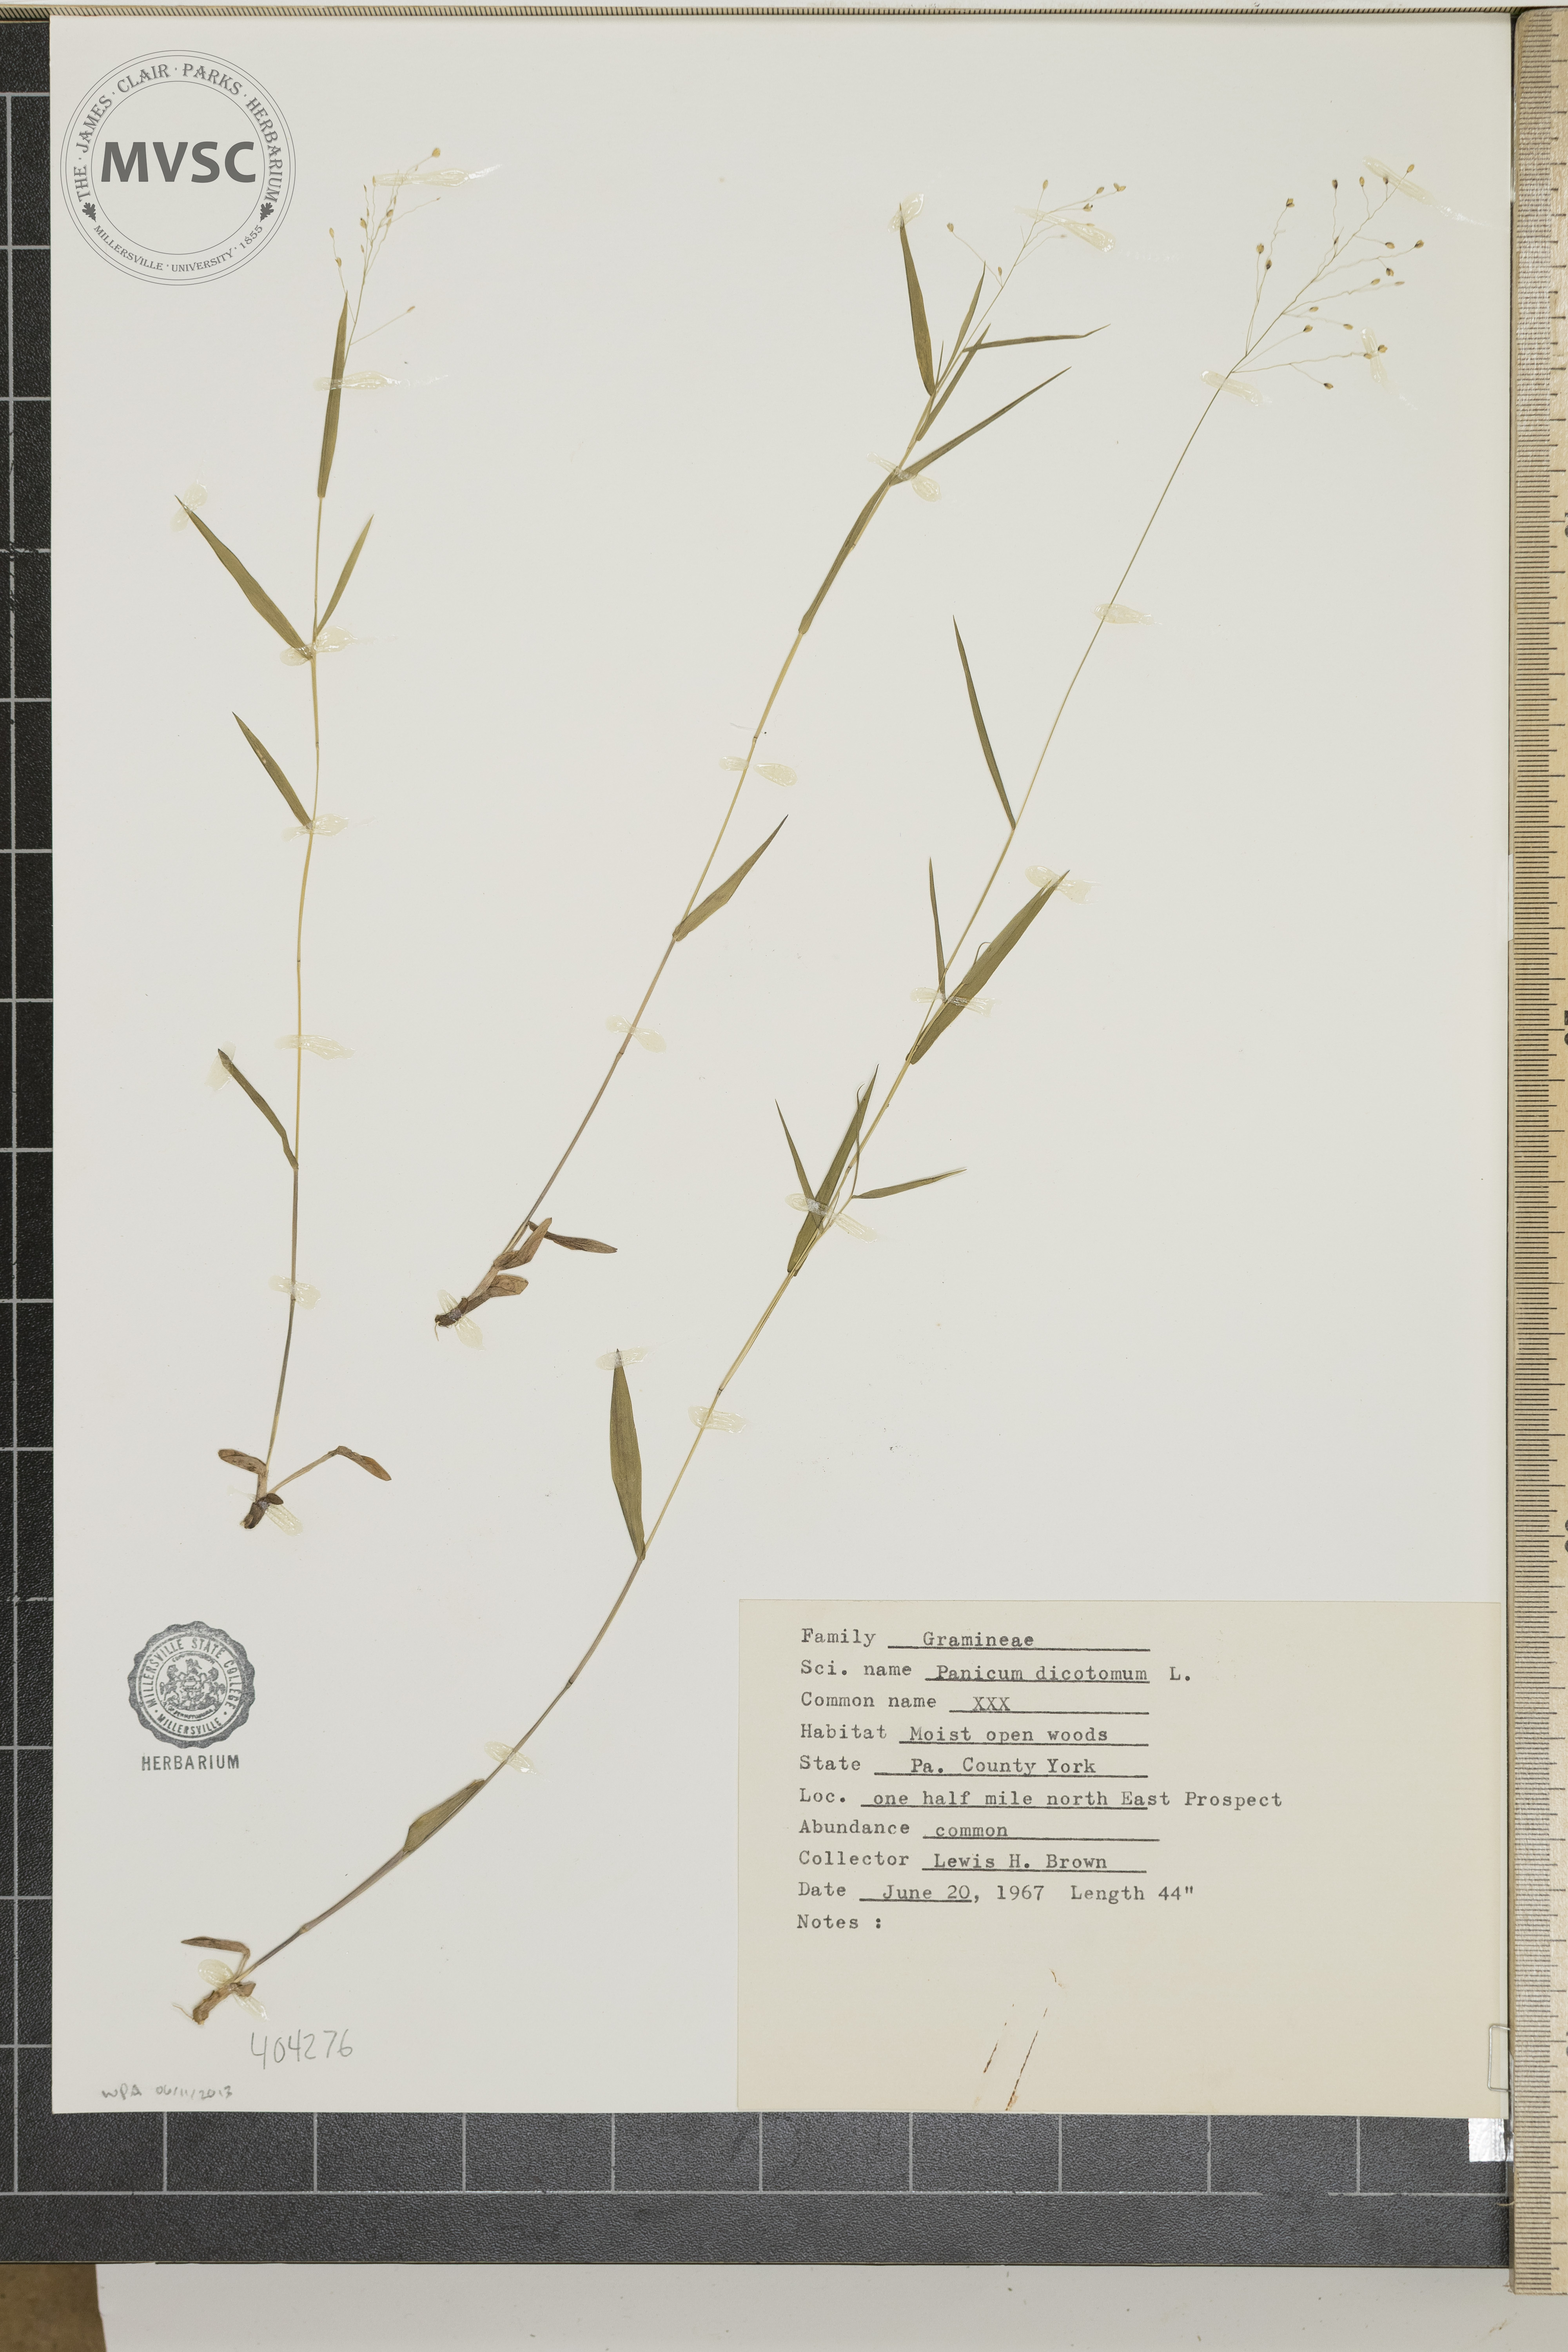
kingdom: Plantae
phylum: Tracheophyta
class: Liliopsida
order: Poales
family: Poaceae
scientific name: Poaceae
